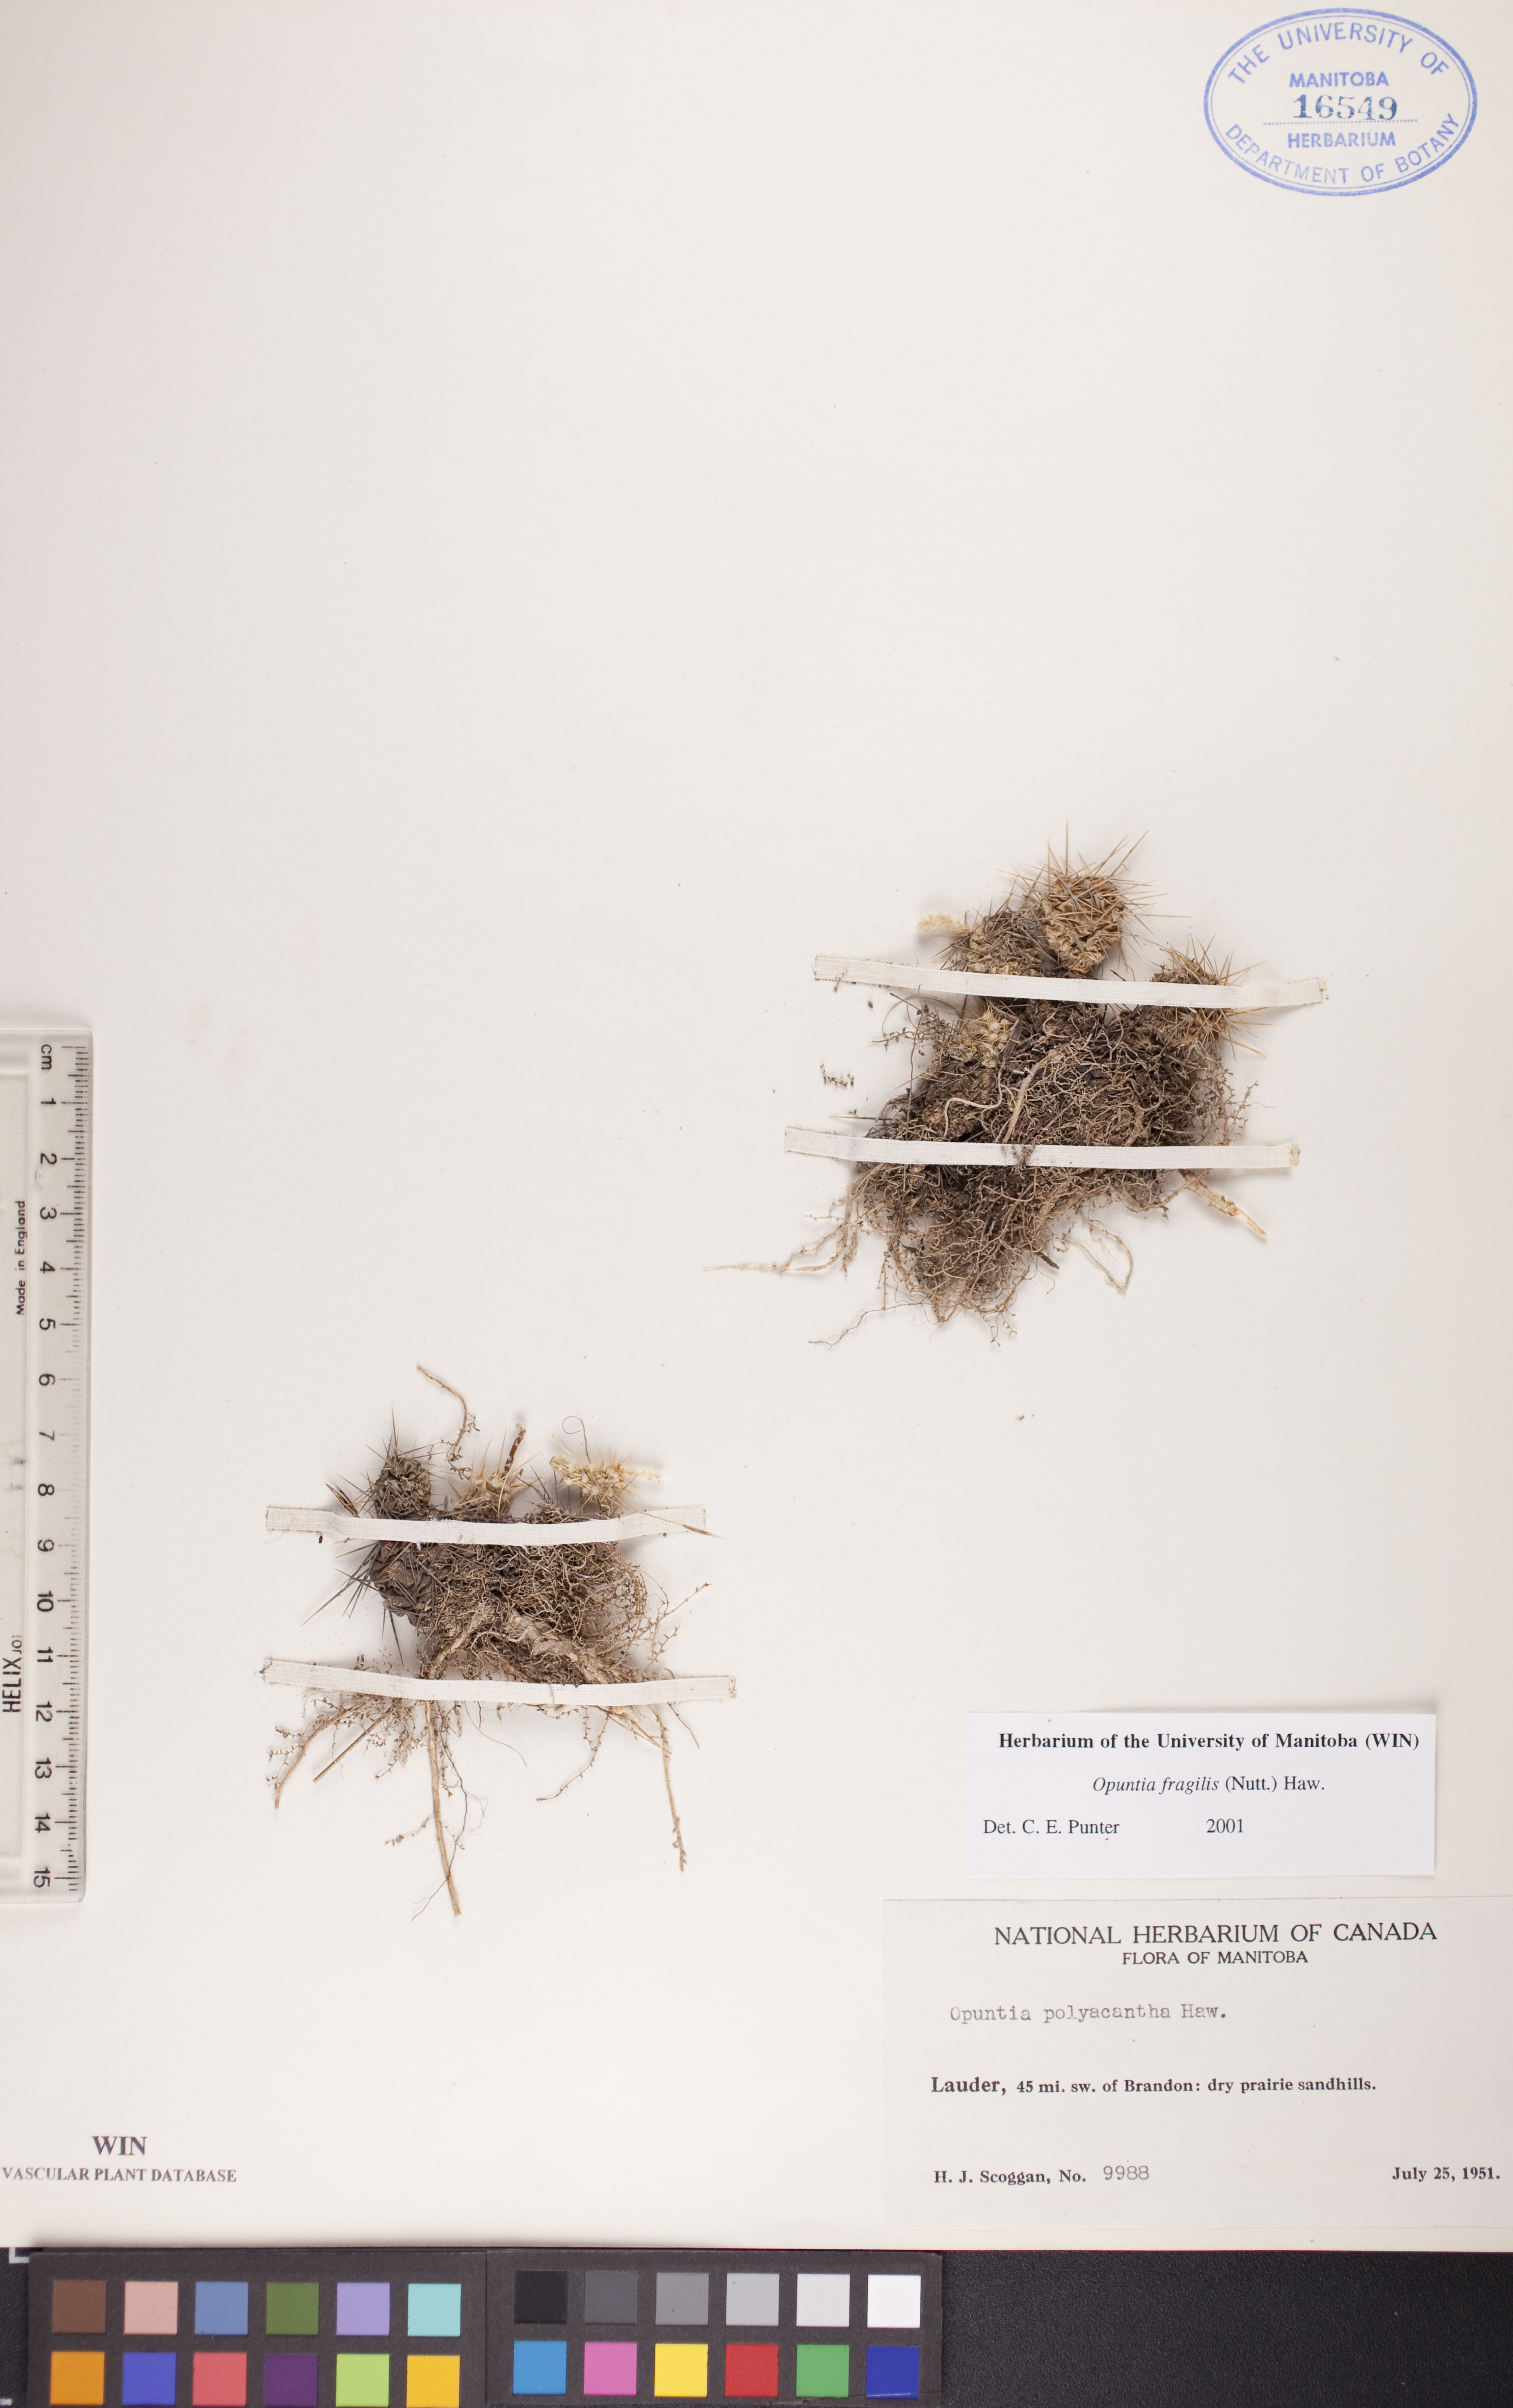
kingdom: Plantae
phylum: Tracheophyta
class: Magnoliopsida
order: Caryophyllales
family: Cactaceae
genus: Opuntia
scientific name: Opuntia fragilis
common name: Brittle cactus
